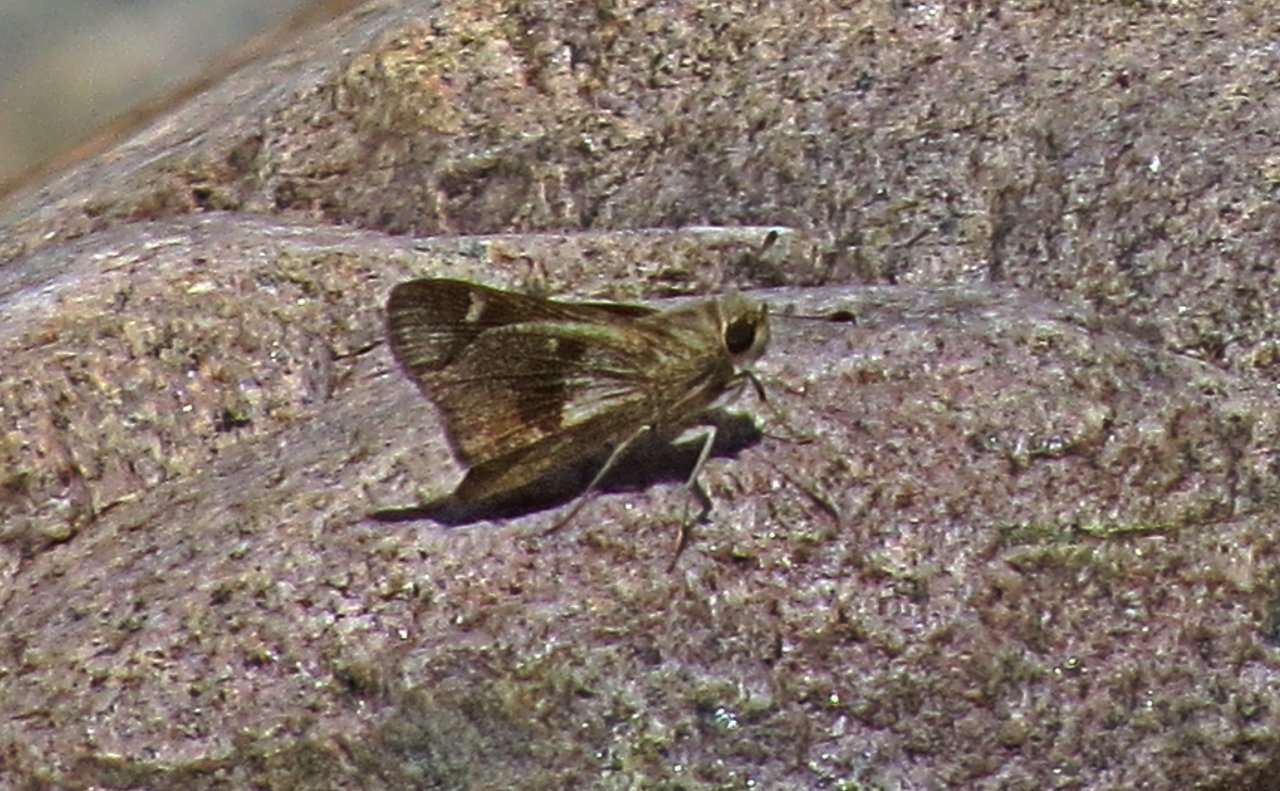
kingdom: Animalia
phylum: Arthropoda
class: Insecta
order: Lepidoptera
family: Hesperiidae
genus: Nyctelius
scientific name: Nyctelius nyctelius
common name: Violet-banded Skipper
